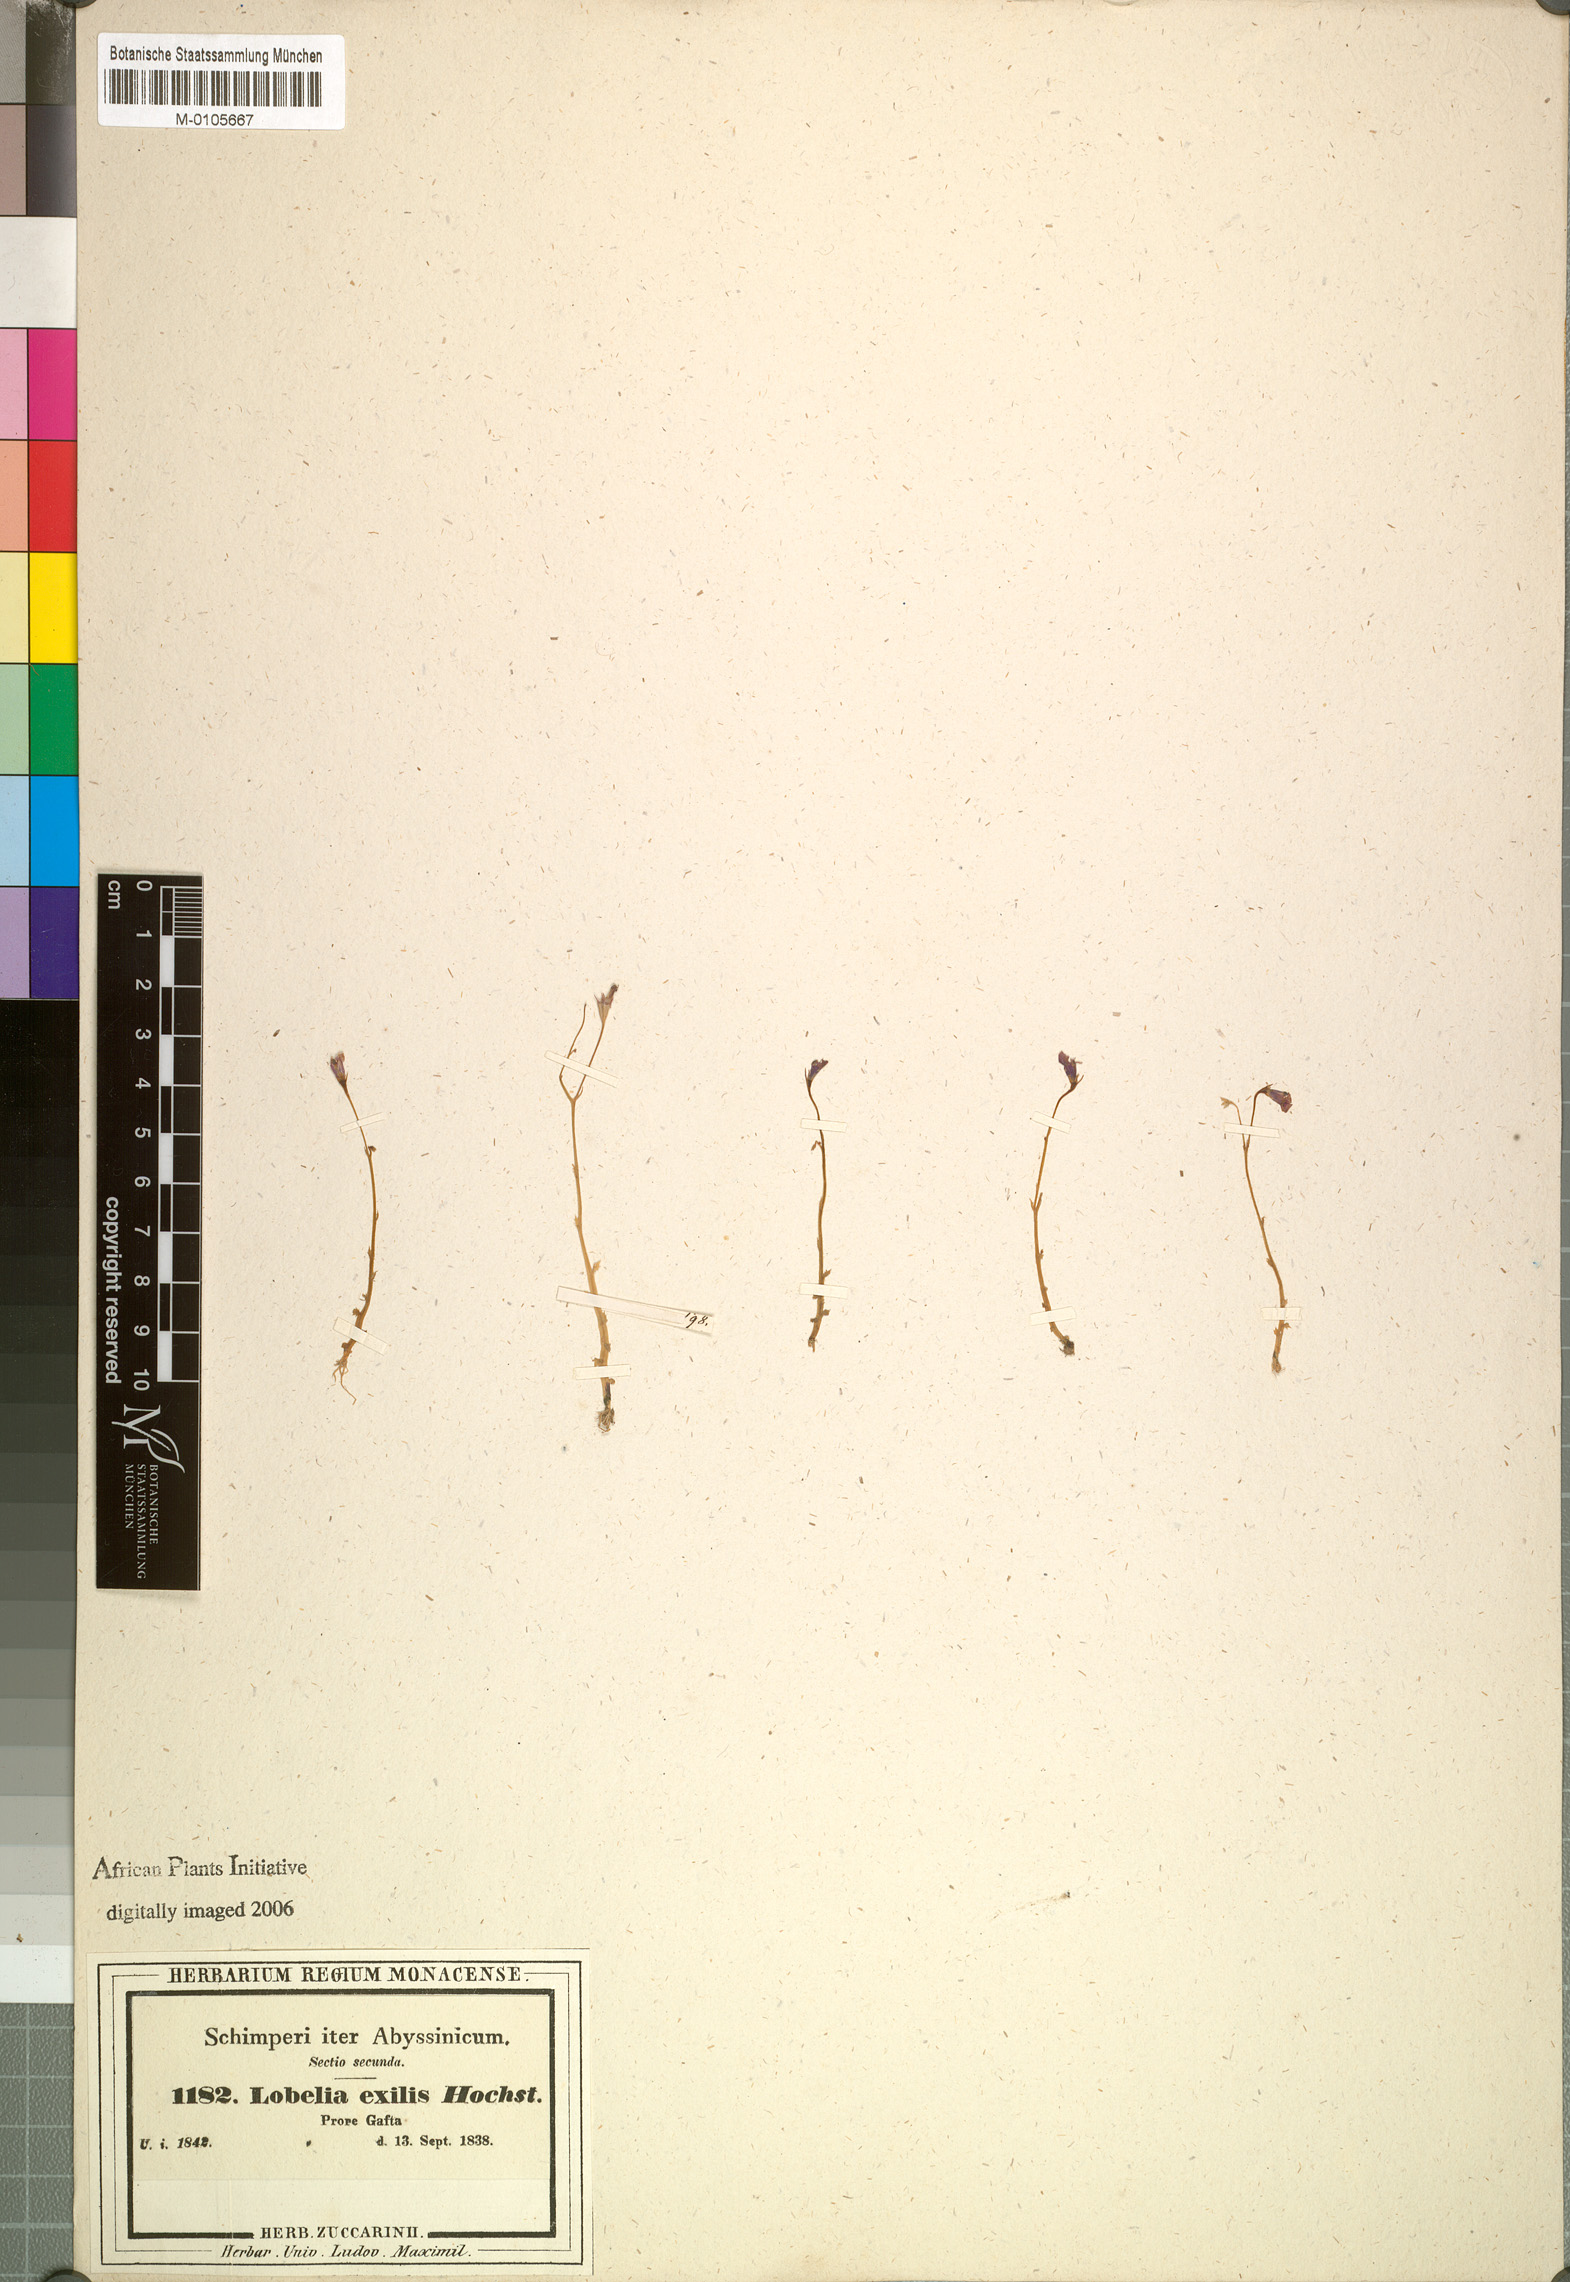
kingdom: Plantae
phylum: Tracheophyta
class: Magnoliopsida
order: Asterales
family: Campanulaceae
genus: Lobelia
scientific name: Lobelia exilis
